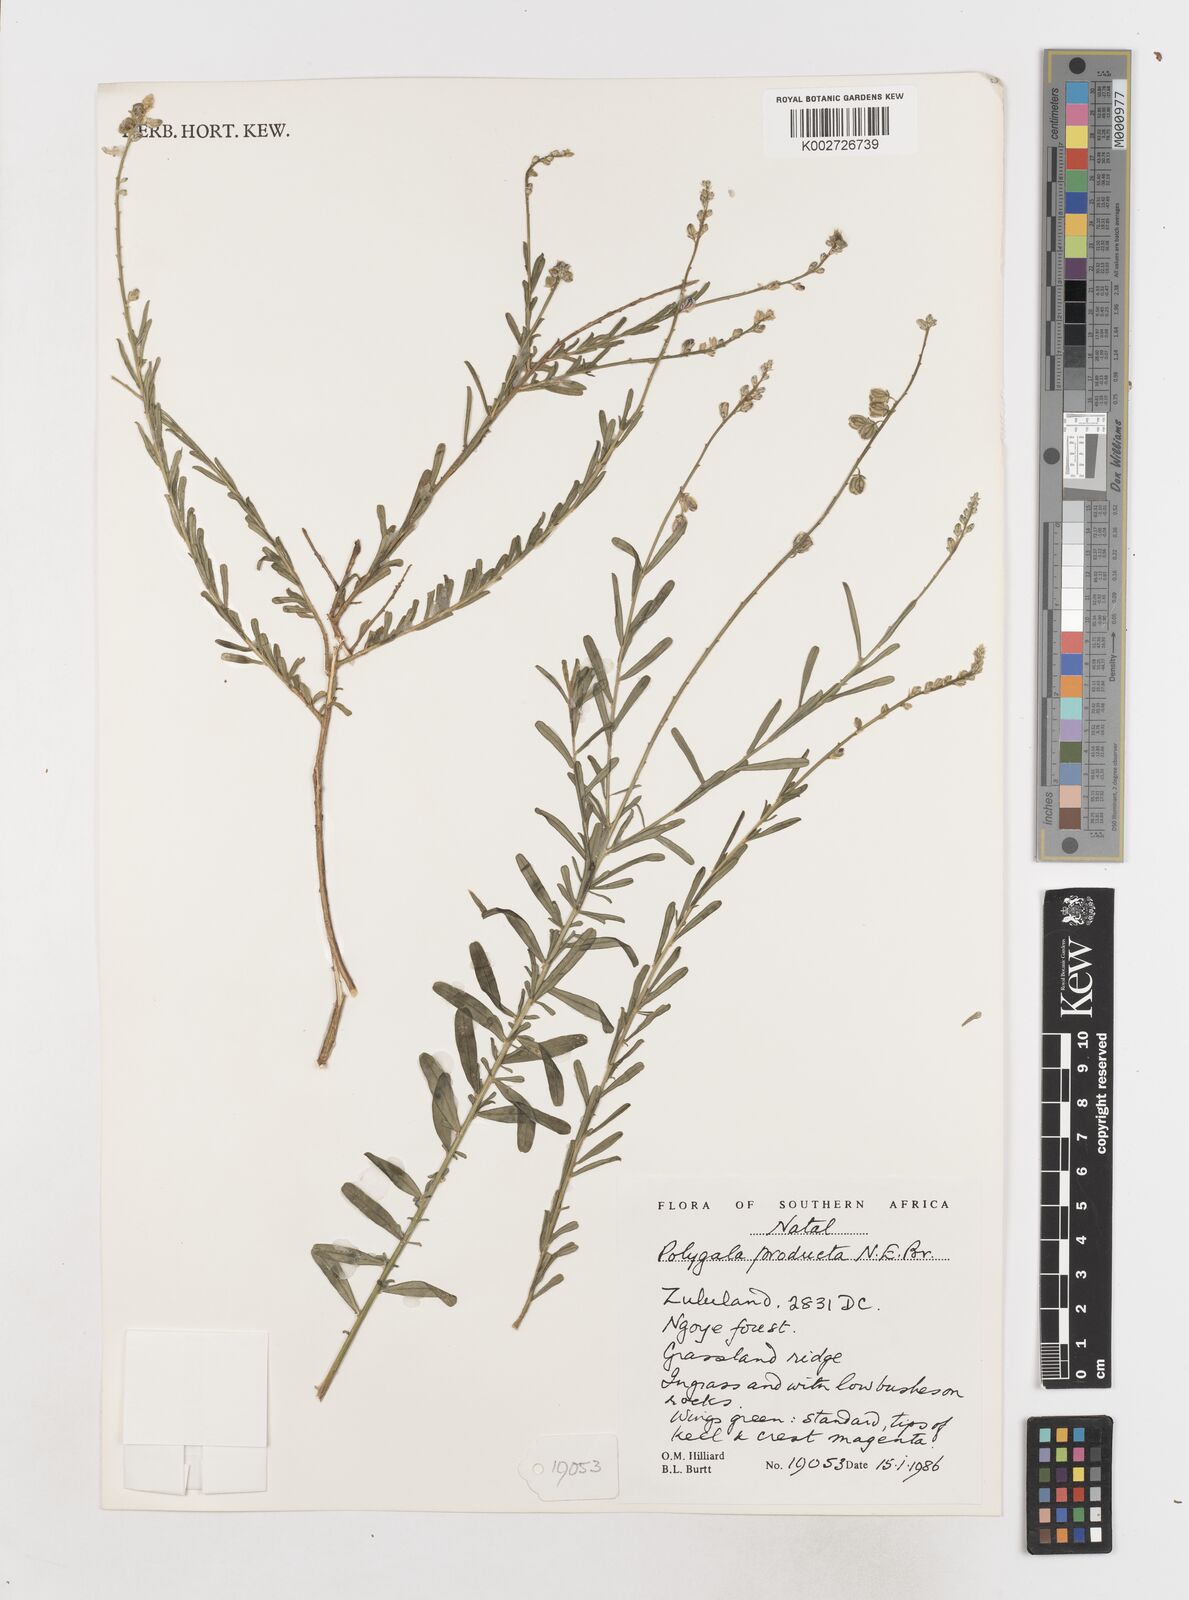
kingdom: Plantae
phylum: Tracheophyta
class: Magnoliopsida
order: Fabales
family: Polygalaceae
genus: Polygala
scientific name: Polygala producta
